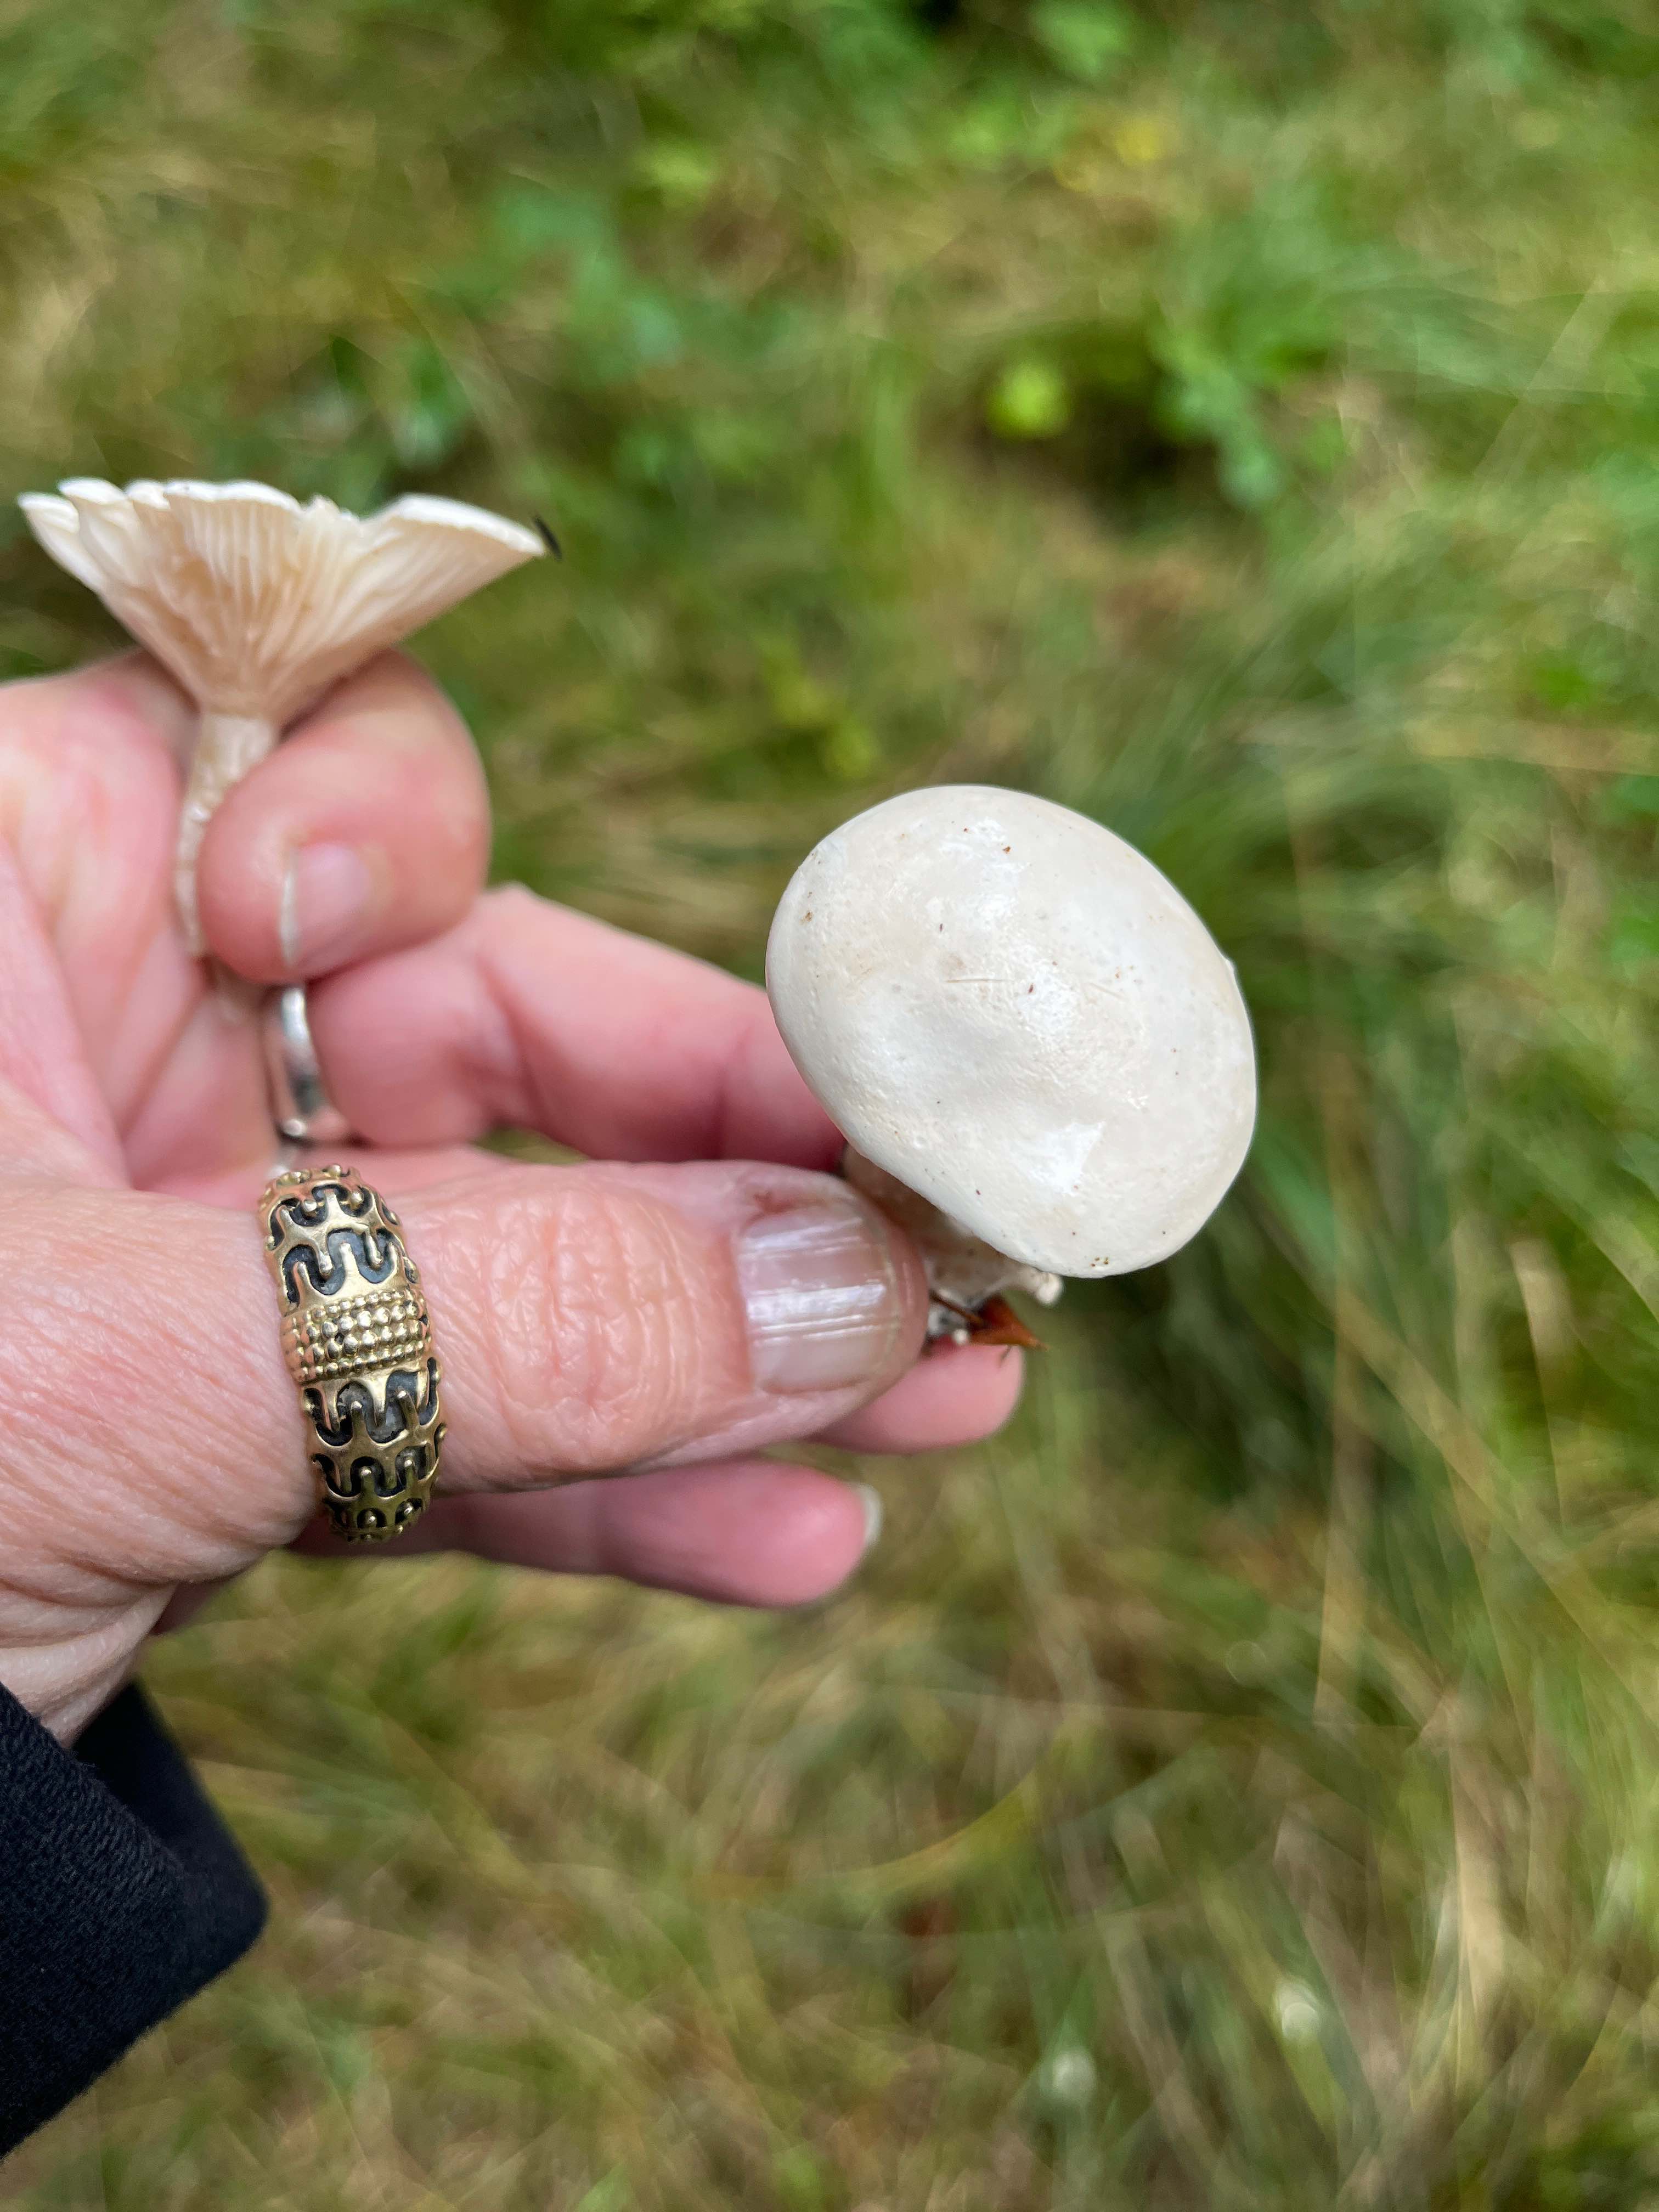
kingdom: Fungi
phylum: Basidiomycota
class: Agaricomycetes
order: Agaricales
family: Entolomataceae
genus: Clitopilus
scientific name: Clitopilus prunulus
